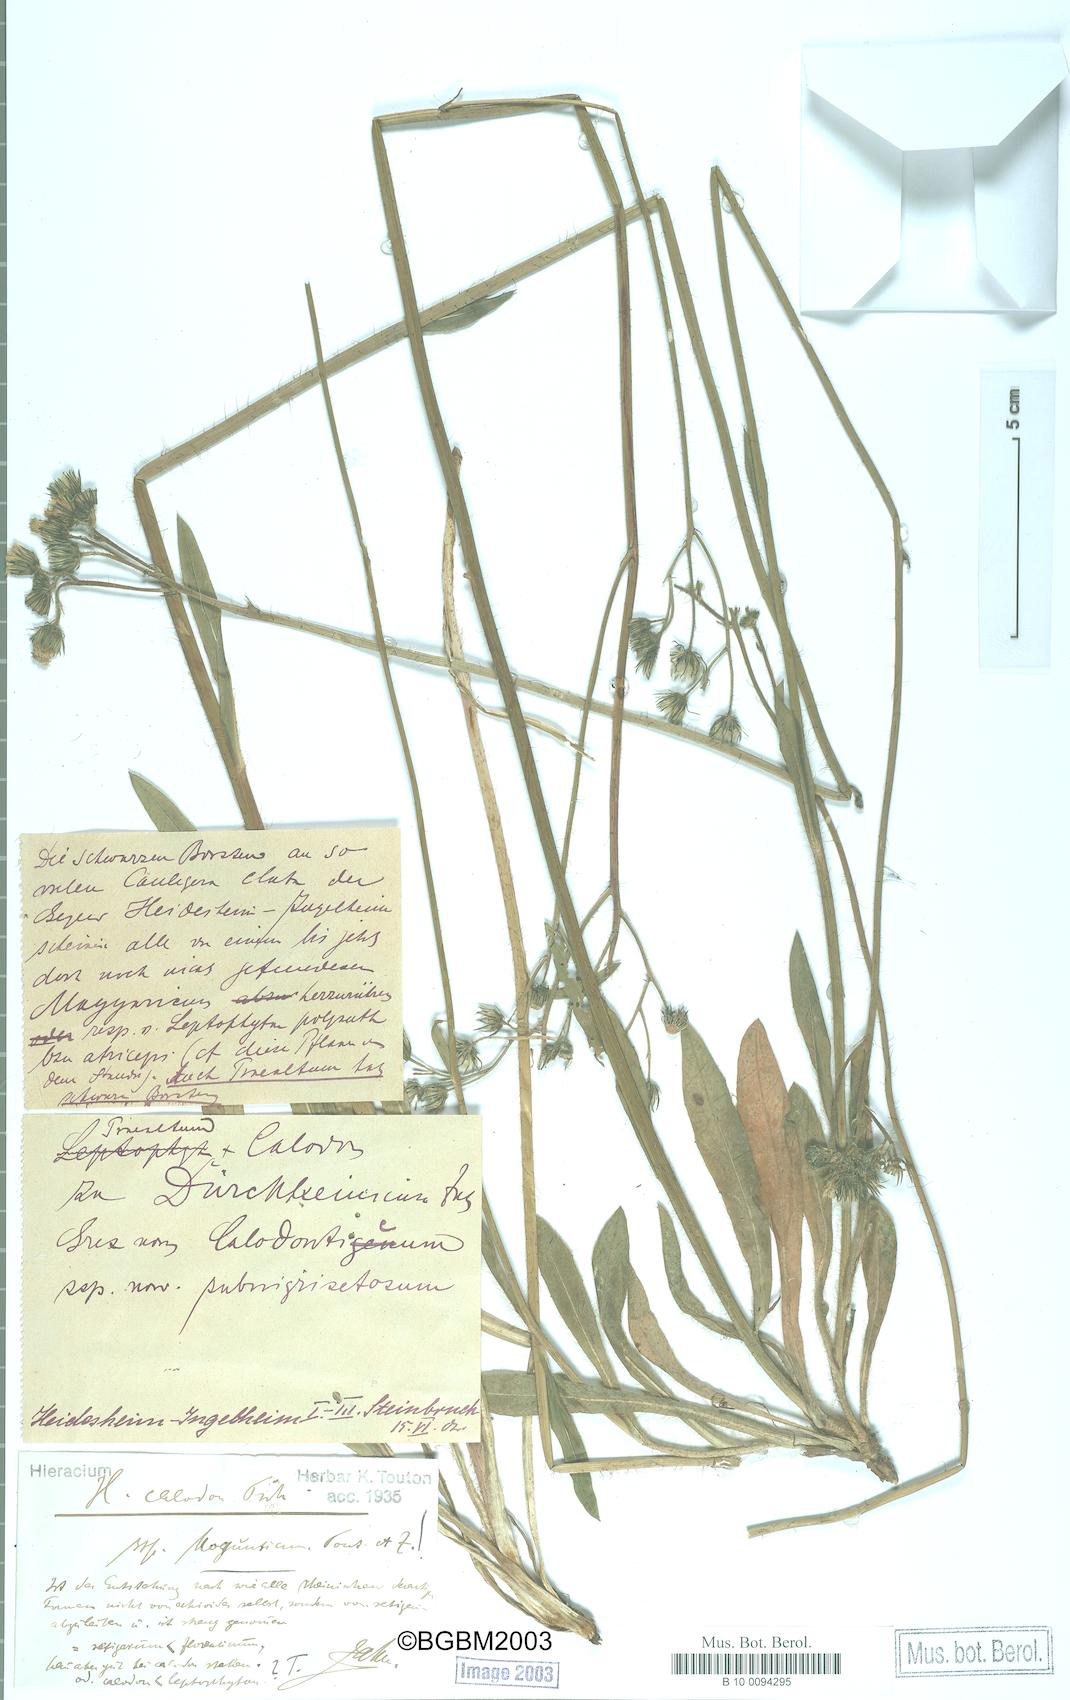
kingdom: Plantae
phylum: Tracheophyta
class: Magnoliopsida
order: Asterales
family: Asteraceae
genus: Pilosella
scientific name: Pilosella duerkhemiensis
